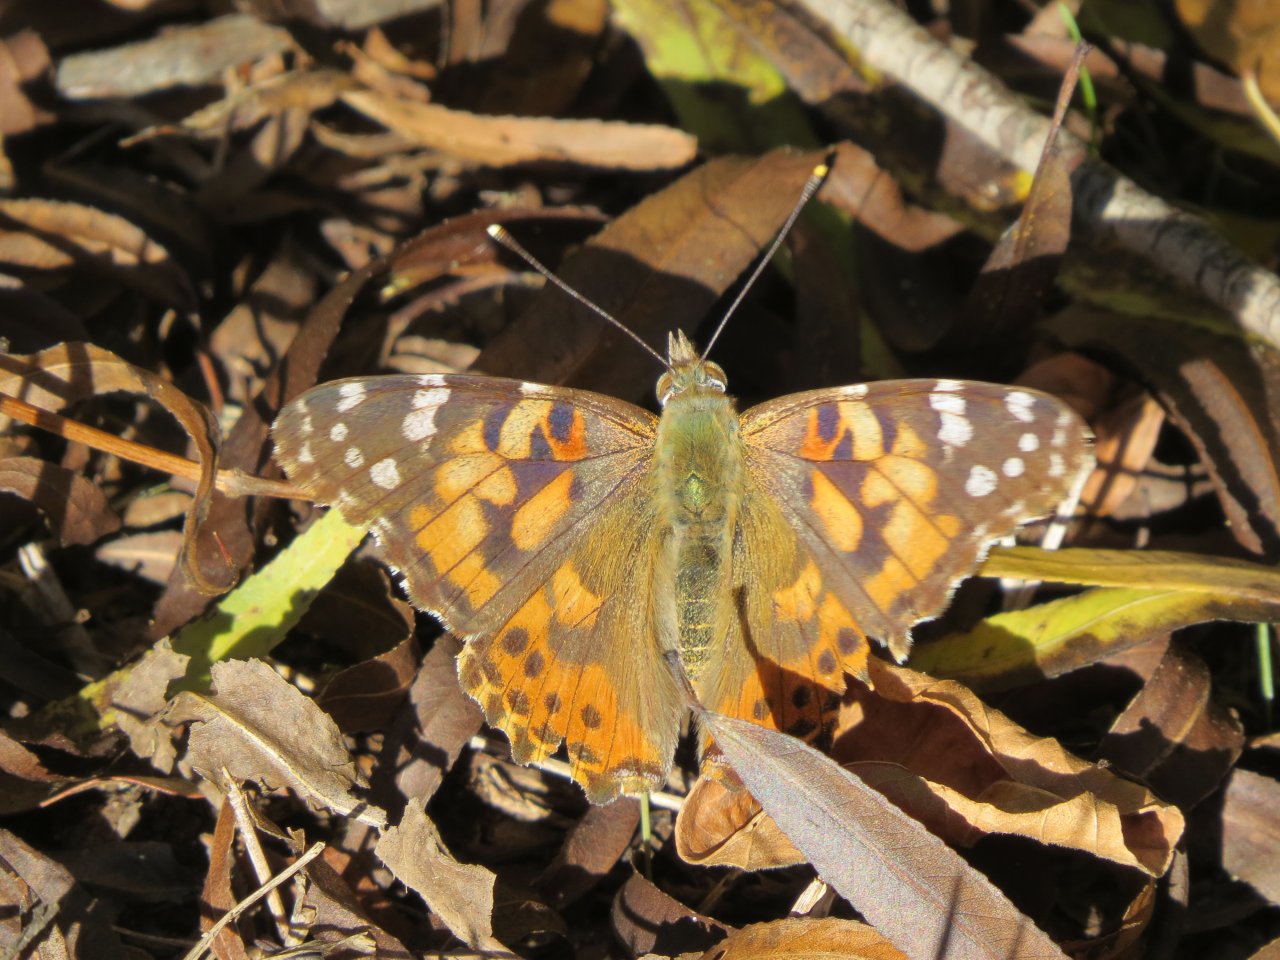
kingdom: Animalia
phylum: Arthropoda
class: Insecta
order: Lepidoptera
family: Nymphalidae
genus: Vanessa
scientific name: Vanessa cardui
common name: Painted Lady
